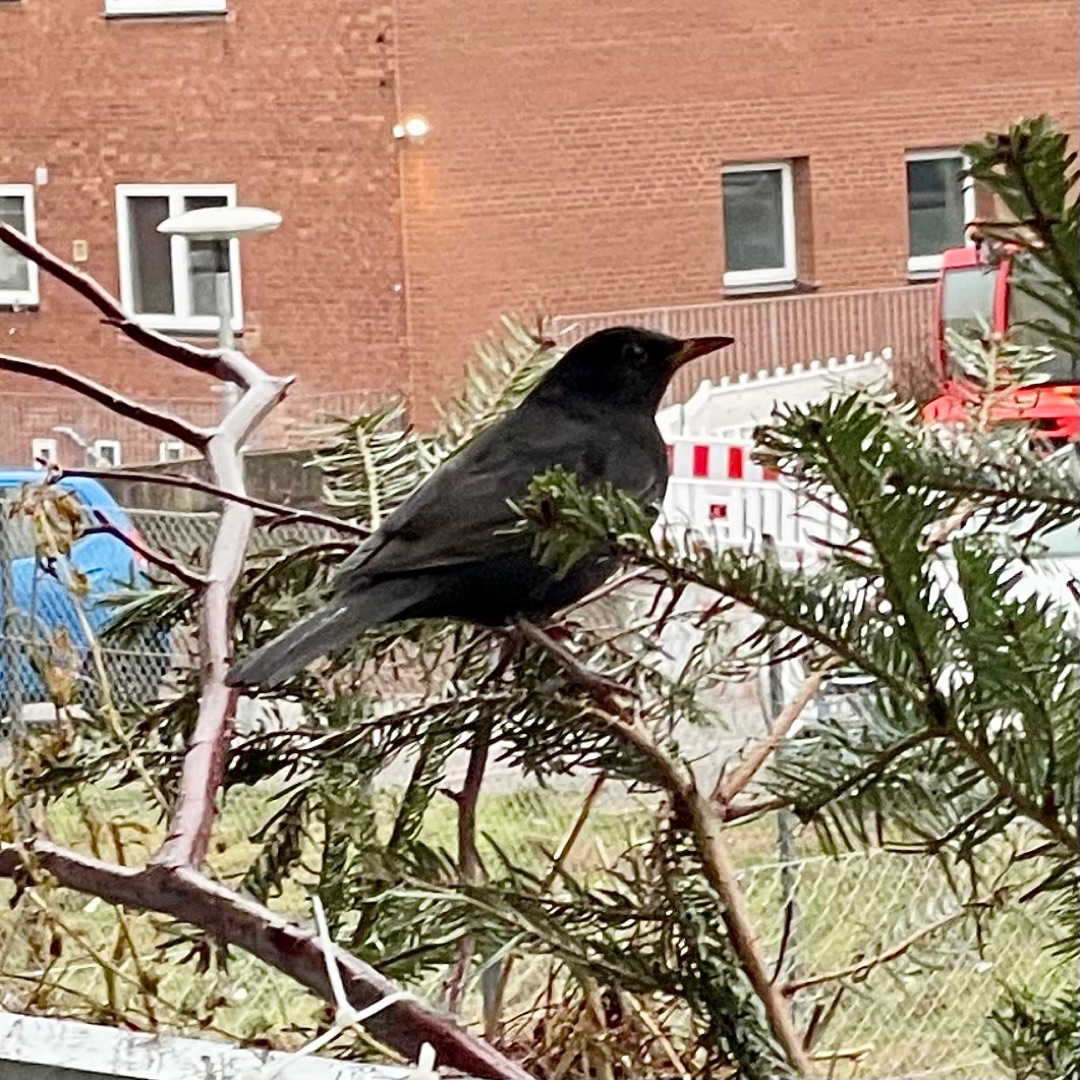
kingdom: Animalia
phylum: Chordata
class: Aves
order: Passeriformes
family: Turdidae
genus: Turdus
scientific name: Turdus merula
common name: Solsort
